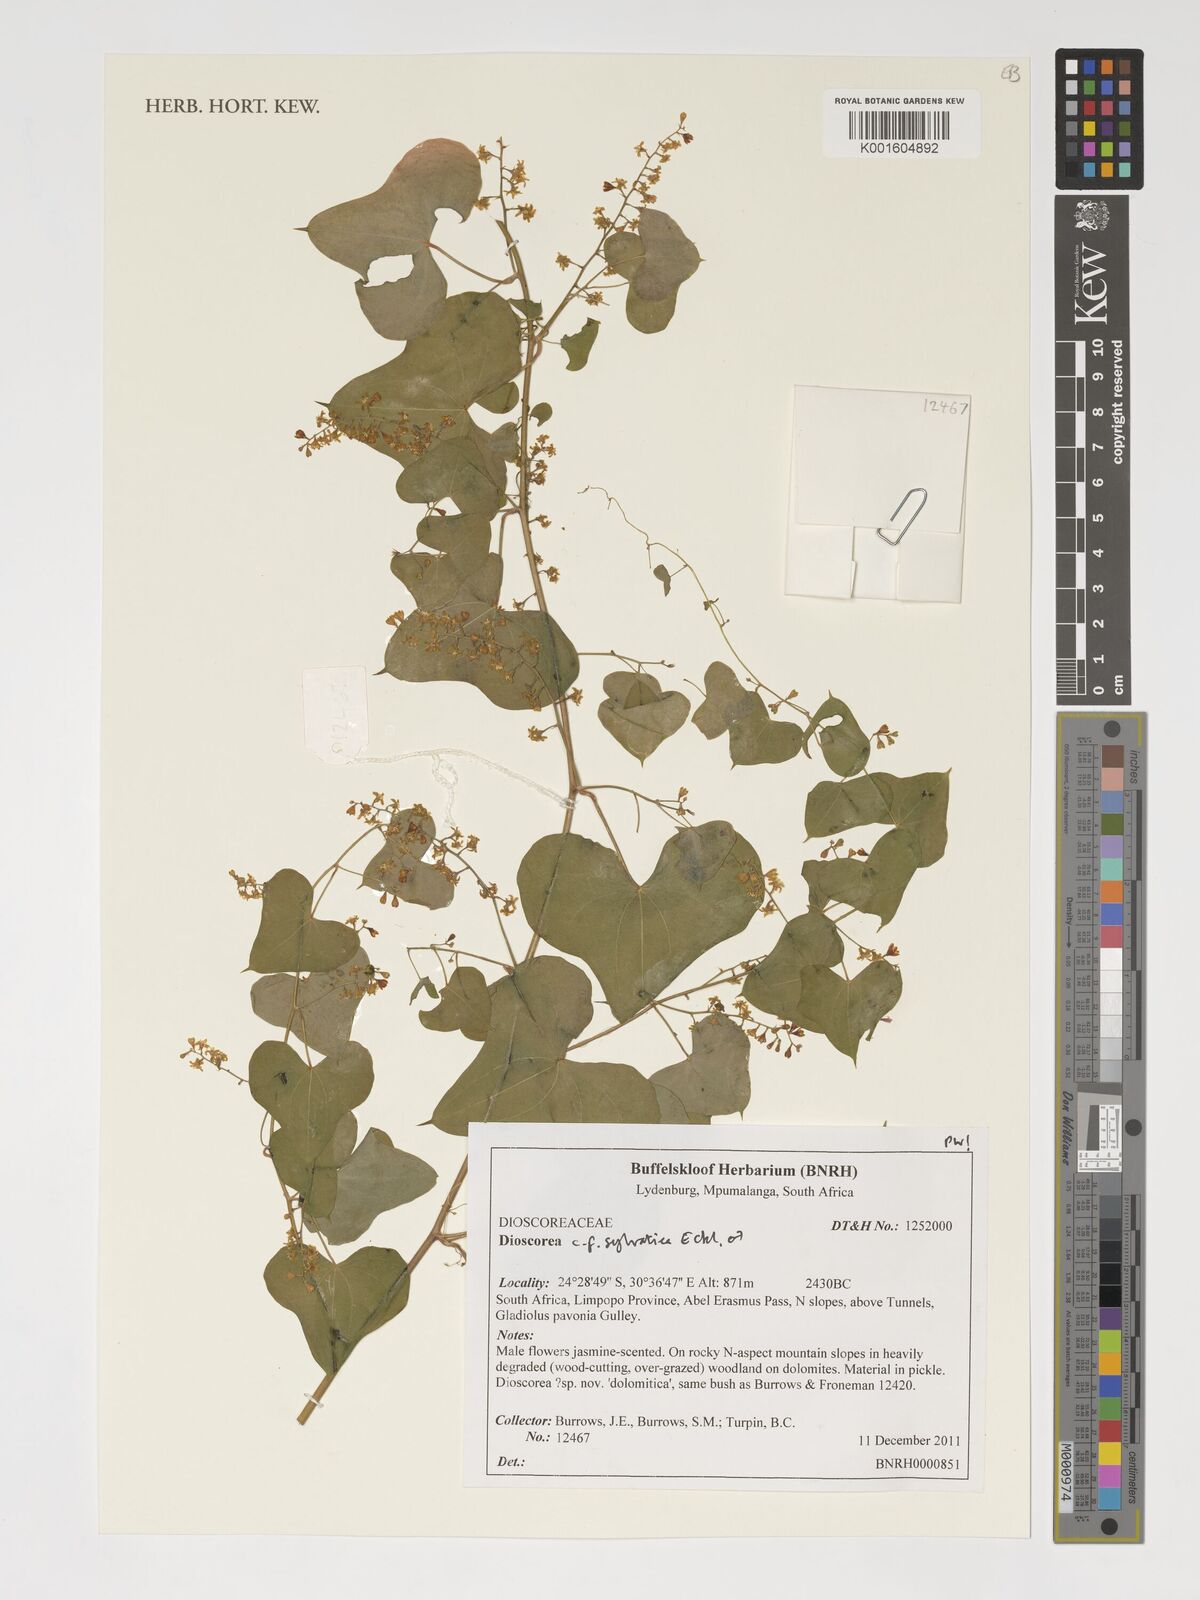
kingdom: Plantae
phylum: Tracheophyta
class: Liliopsida
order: Dioscoreales
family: Dioscoreaceae
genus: Dioscorea
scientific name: Dioscorea sylvatica
